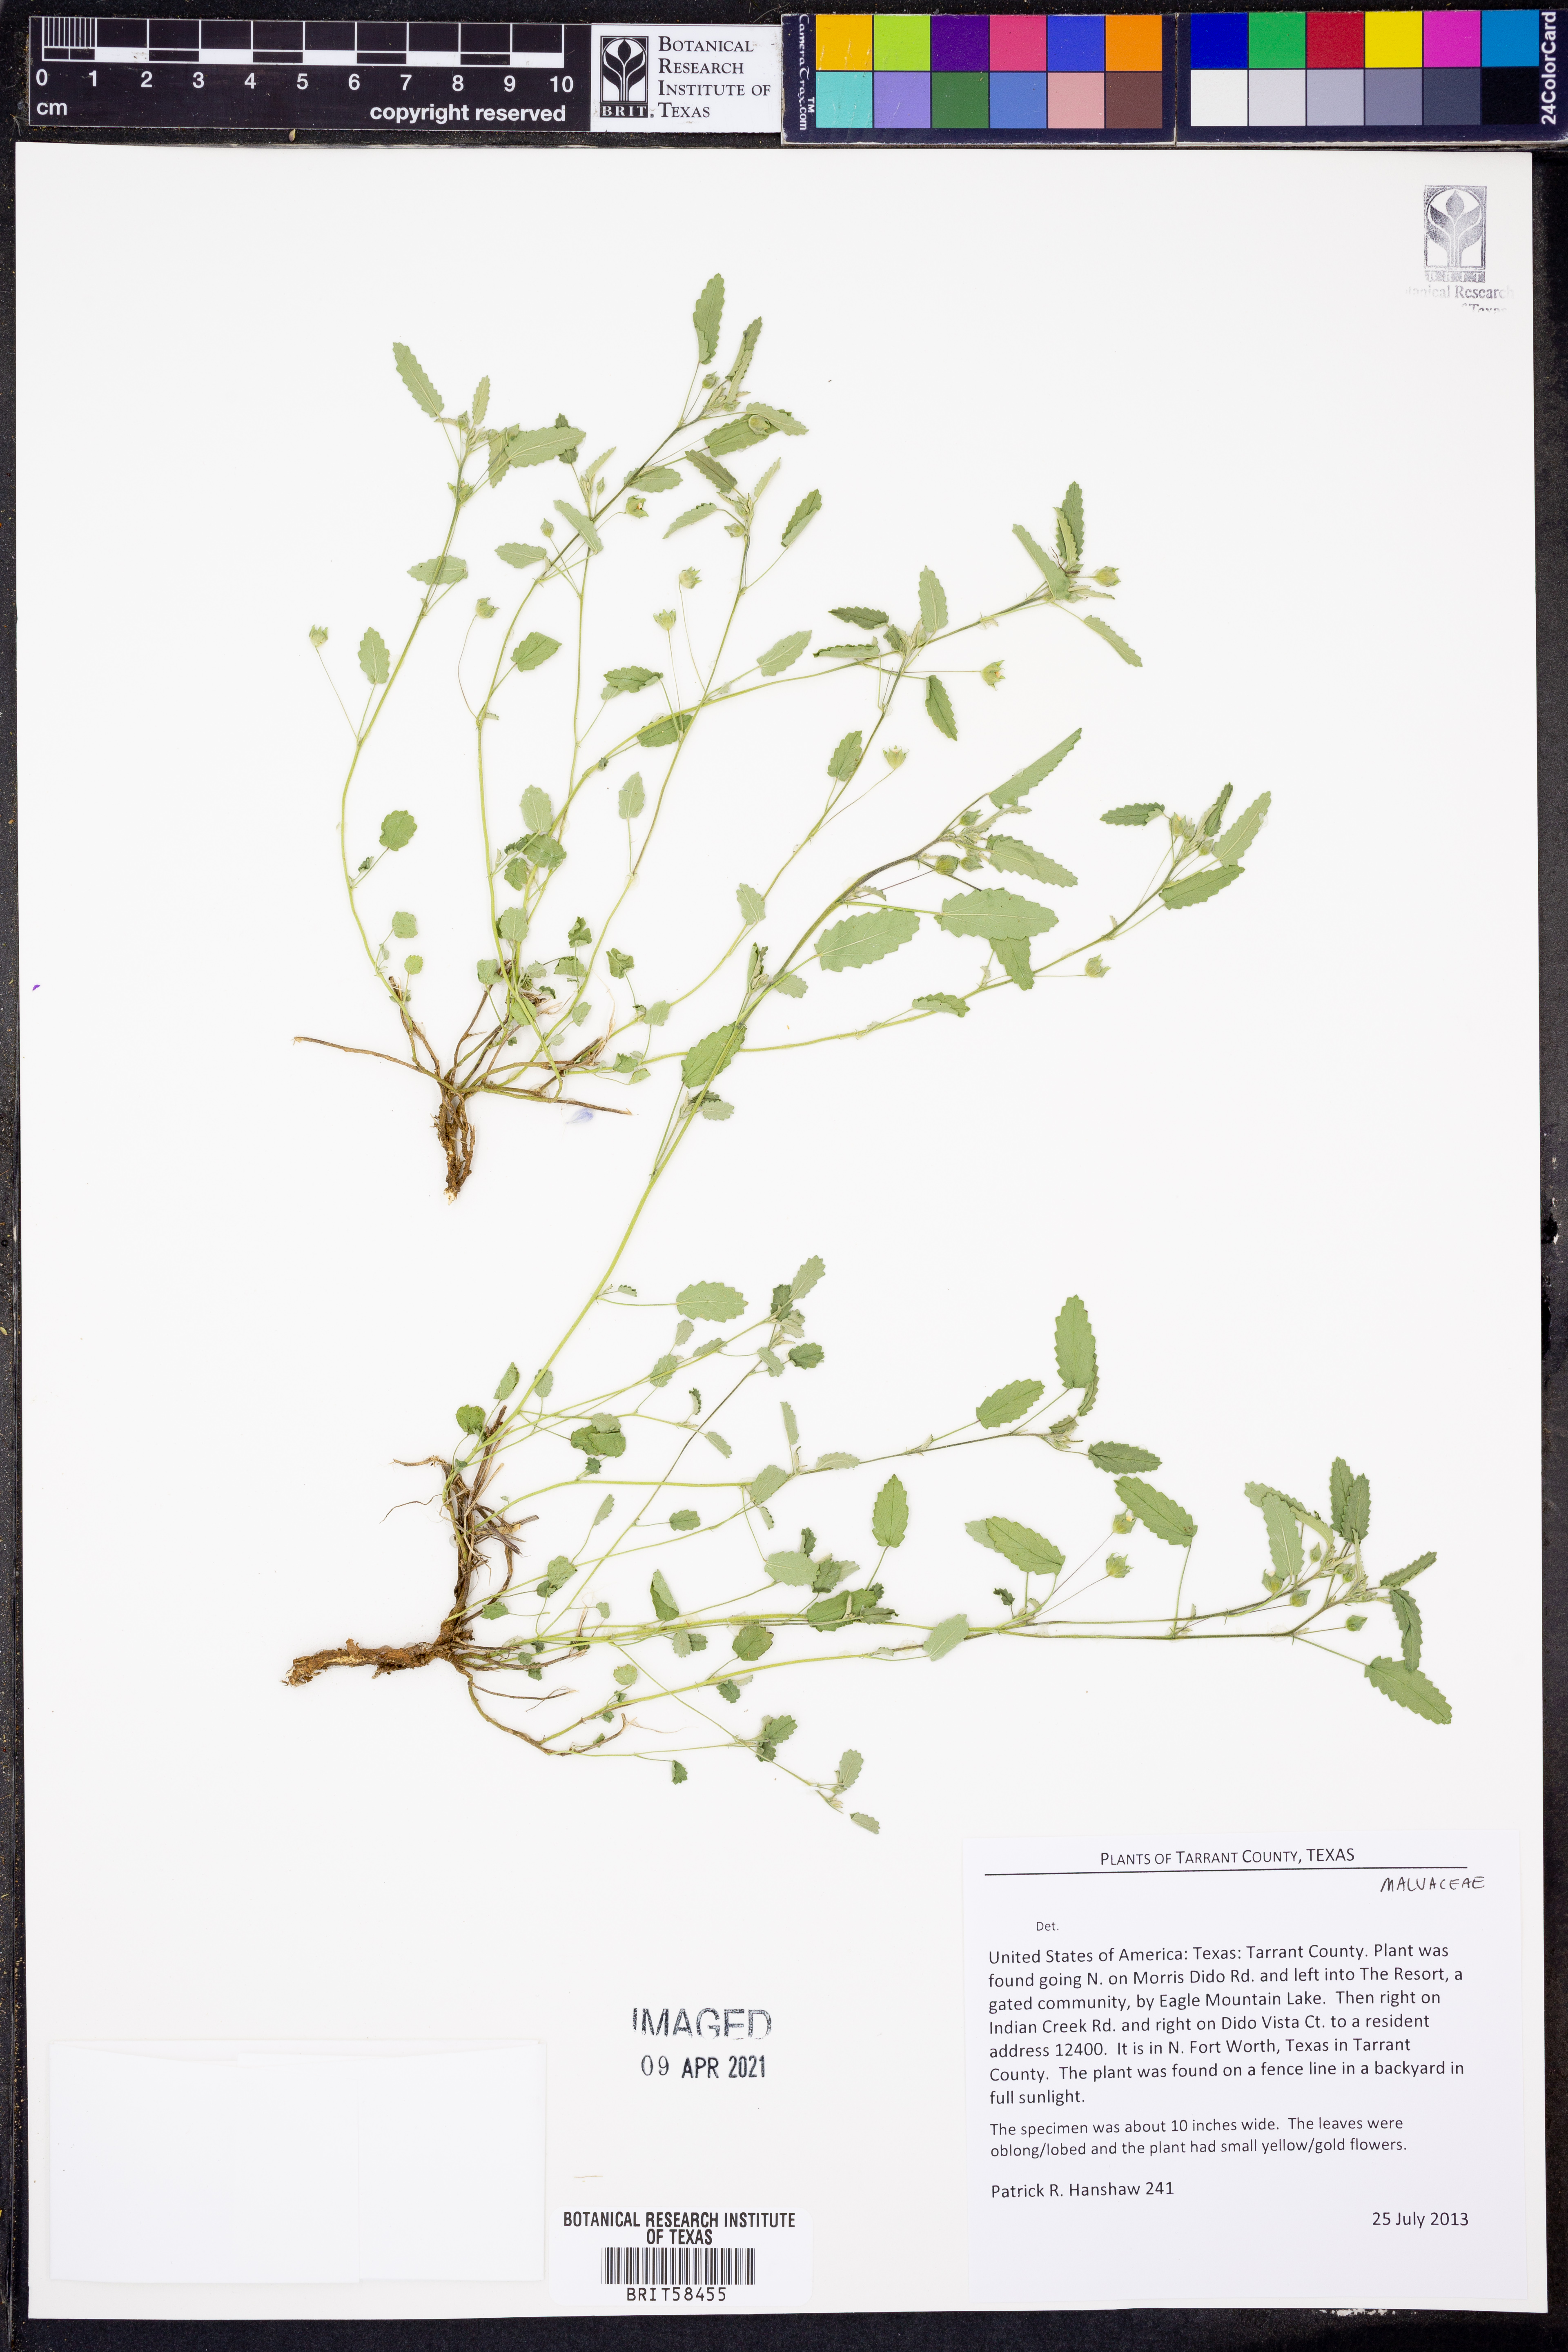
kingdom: Plantae
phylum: Tracheophyta
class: Magnoliopsida
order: Malvales
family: Malvaceae
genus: Sida
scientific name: Sida abutifolia
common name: Spreading fantails
